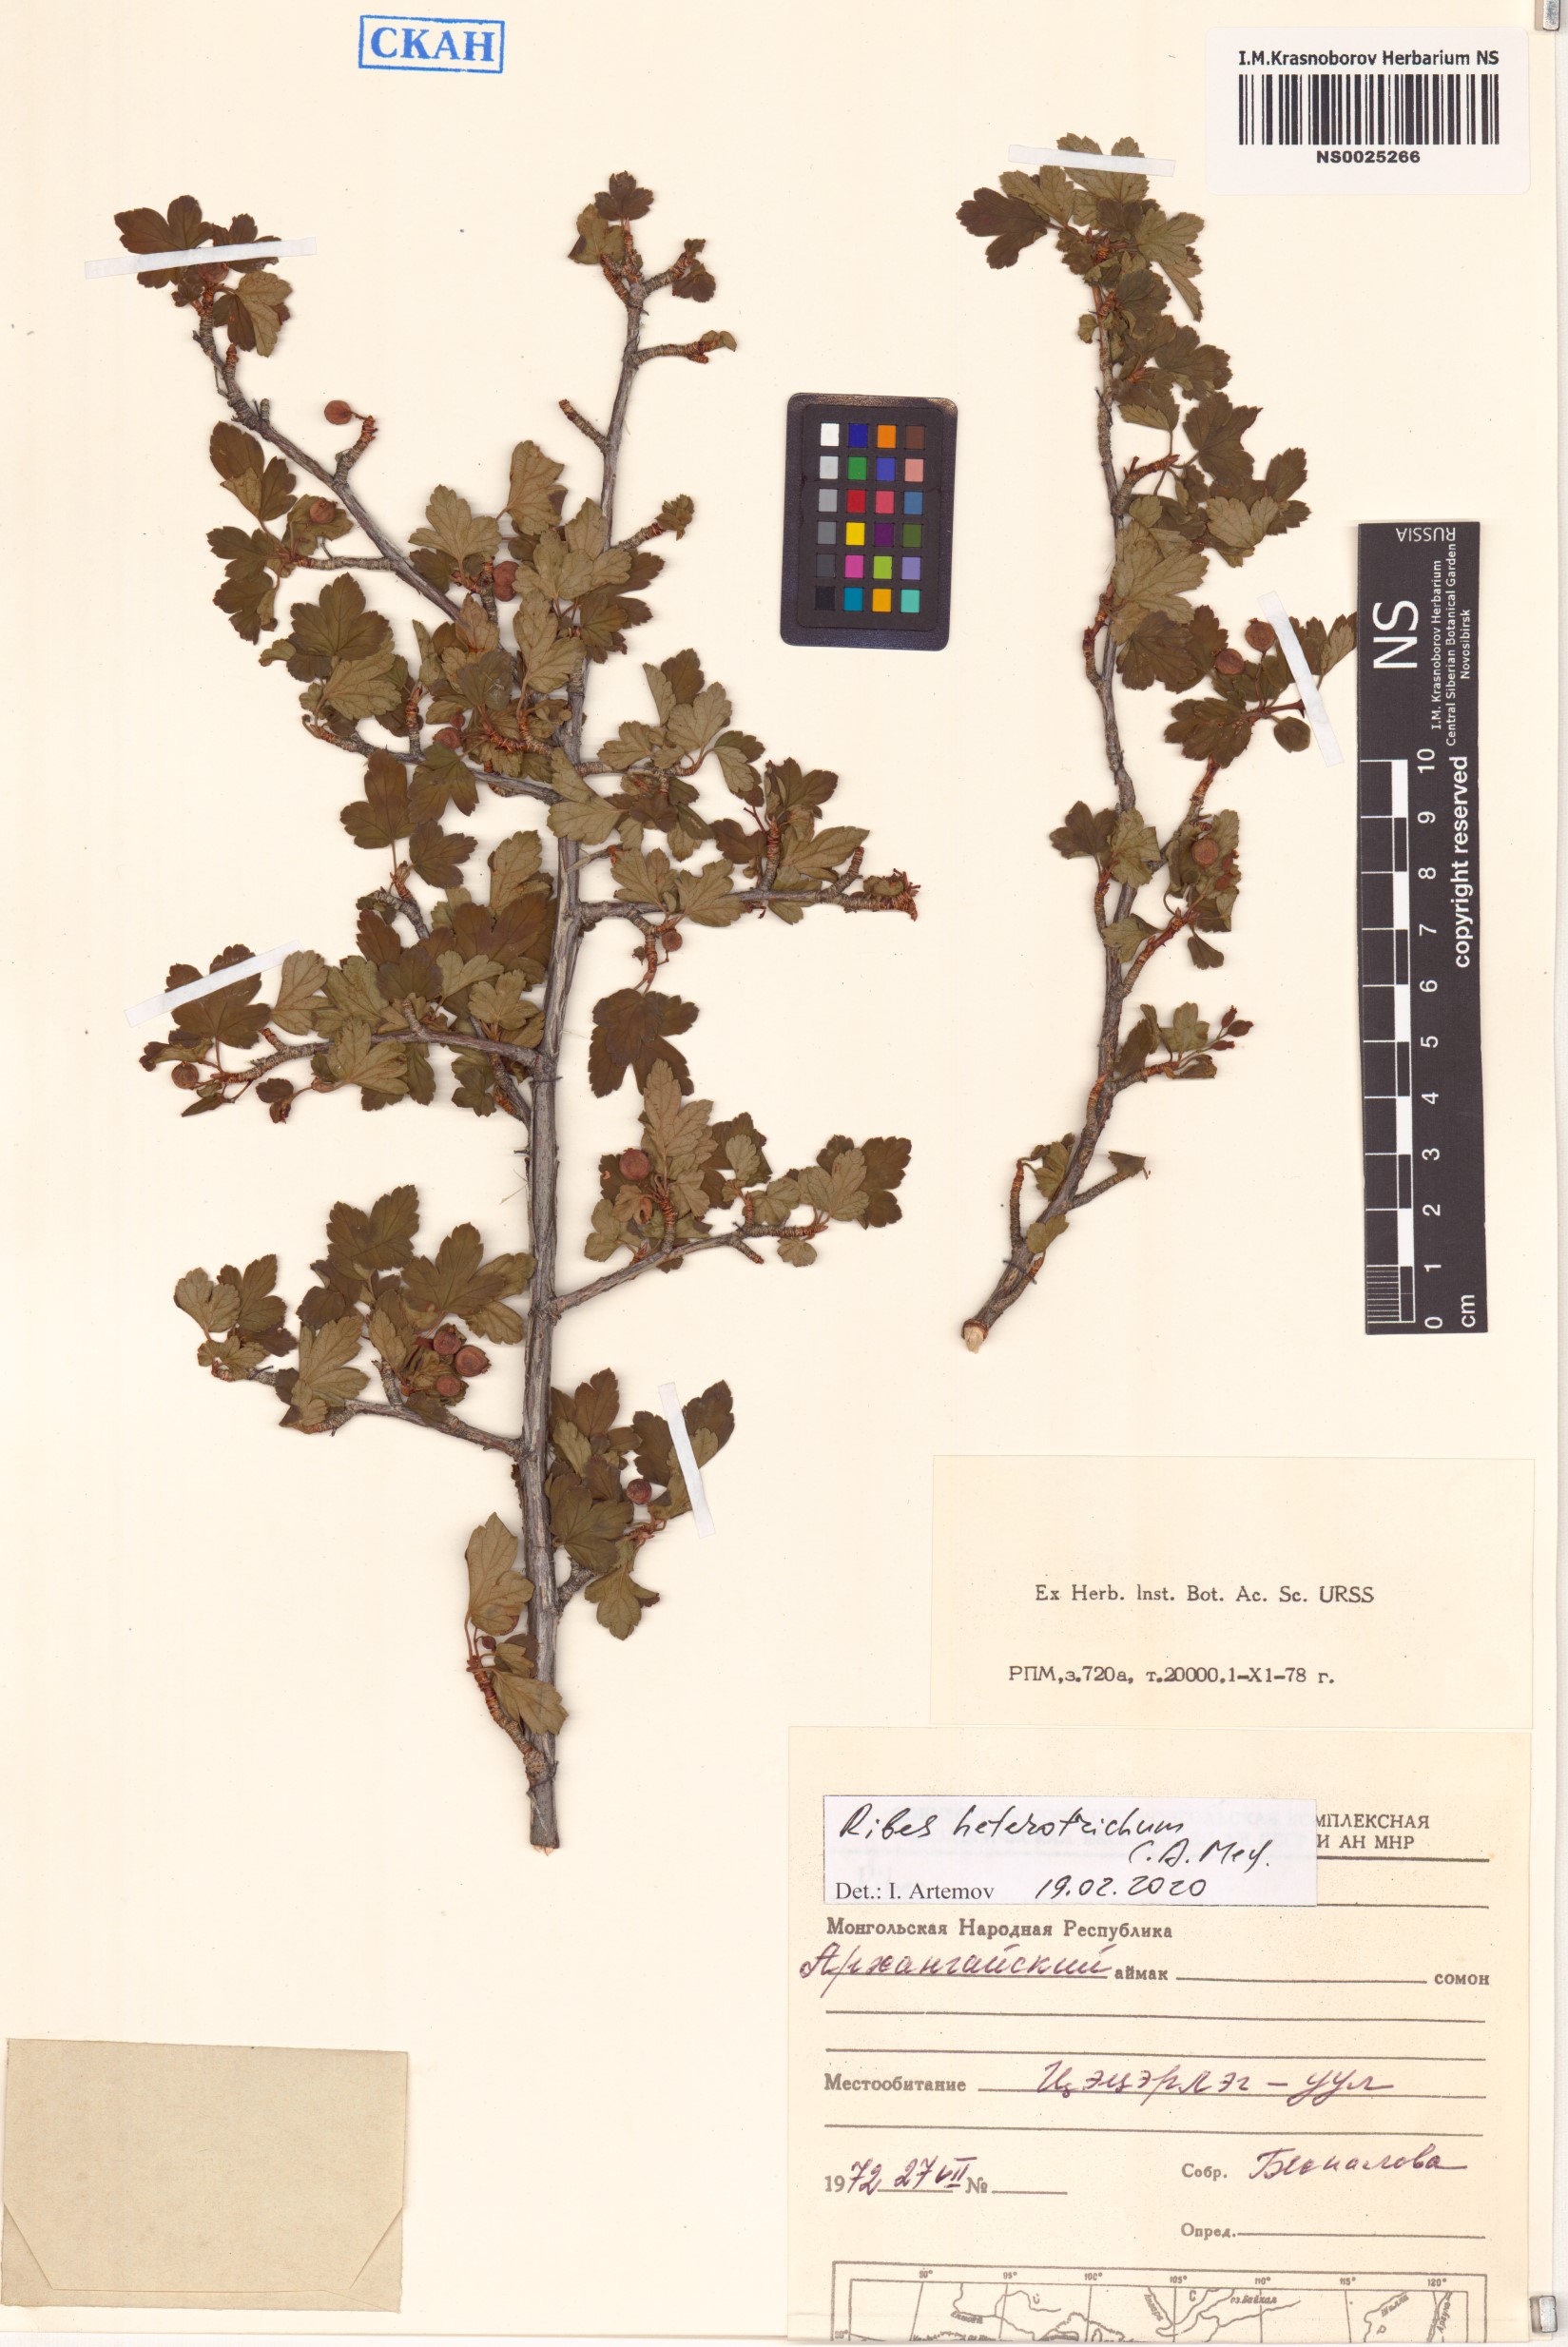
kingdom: Plantae
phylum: Tracheophyta
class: Magnoliopsida
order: Saxifragales
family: Grossulariaceae
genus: Ribes
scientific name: Ribes heterotrichum
